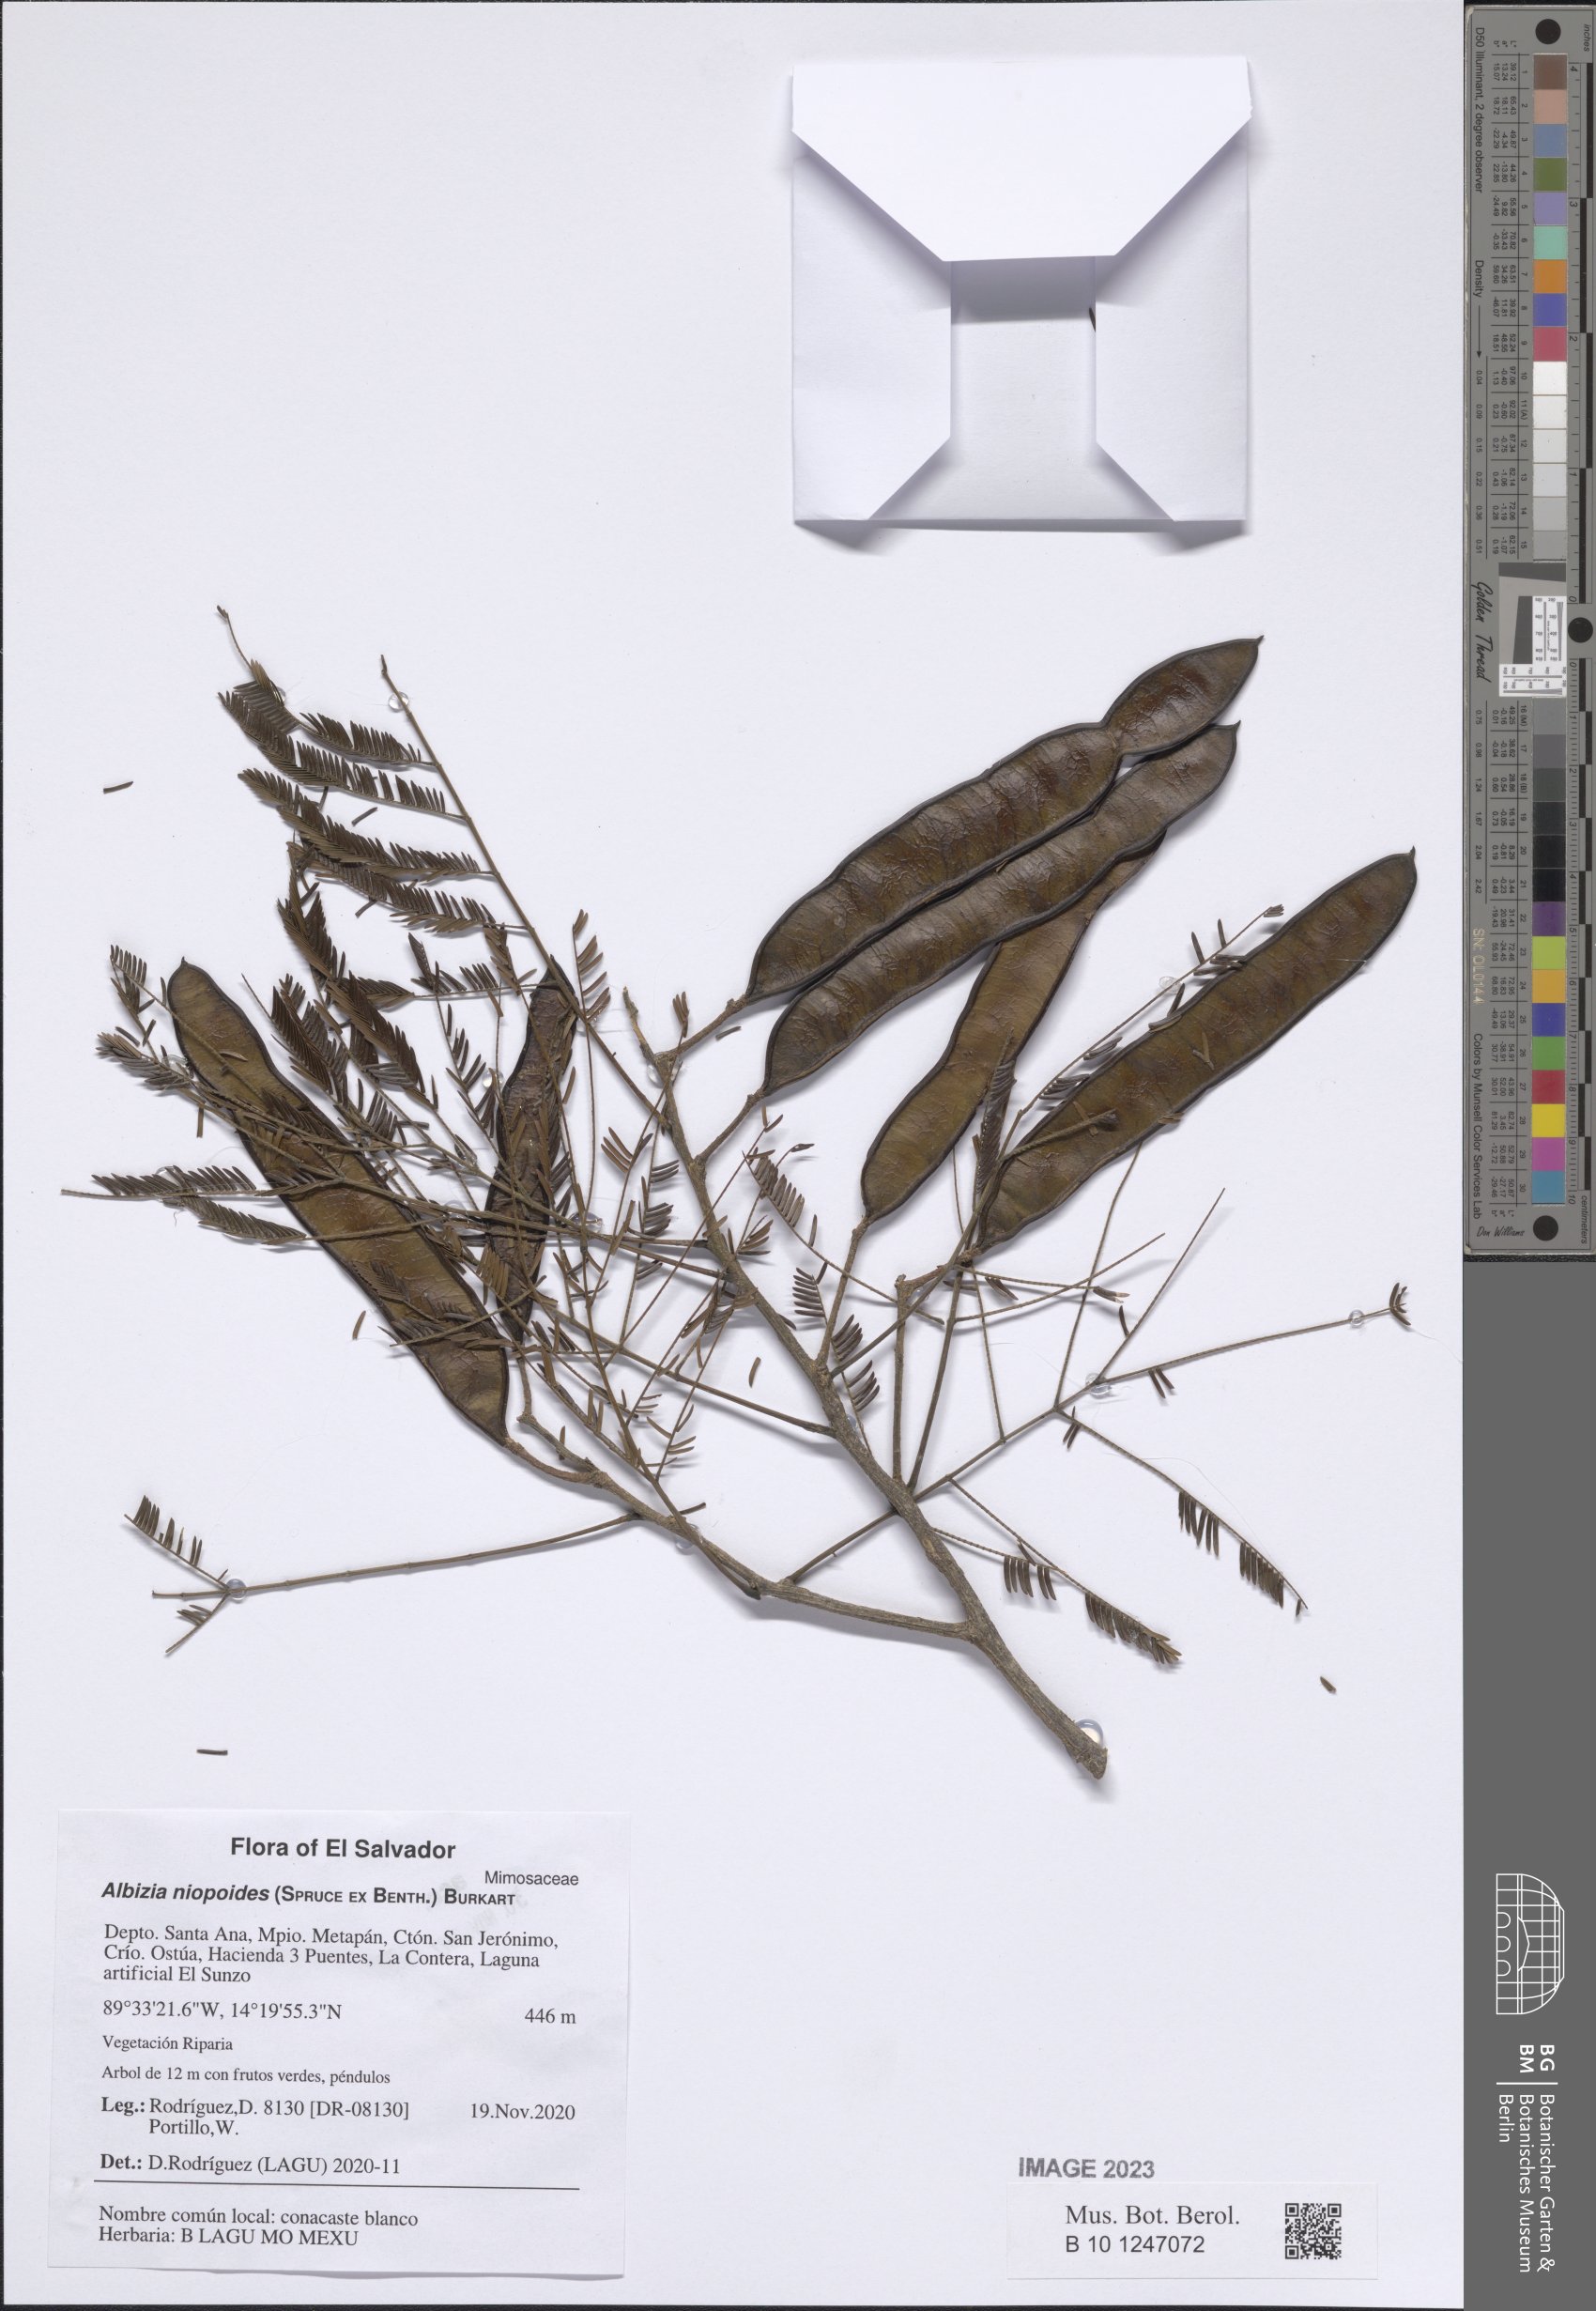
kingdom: Plantae
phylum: Tracheophyta
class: Magnoliopsida
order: Fabales
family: Fabaceae
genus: Albizia
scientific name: Albizia niopoides
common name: Silk tree
